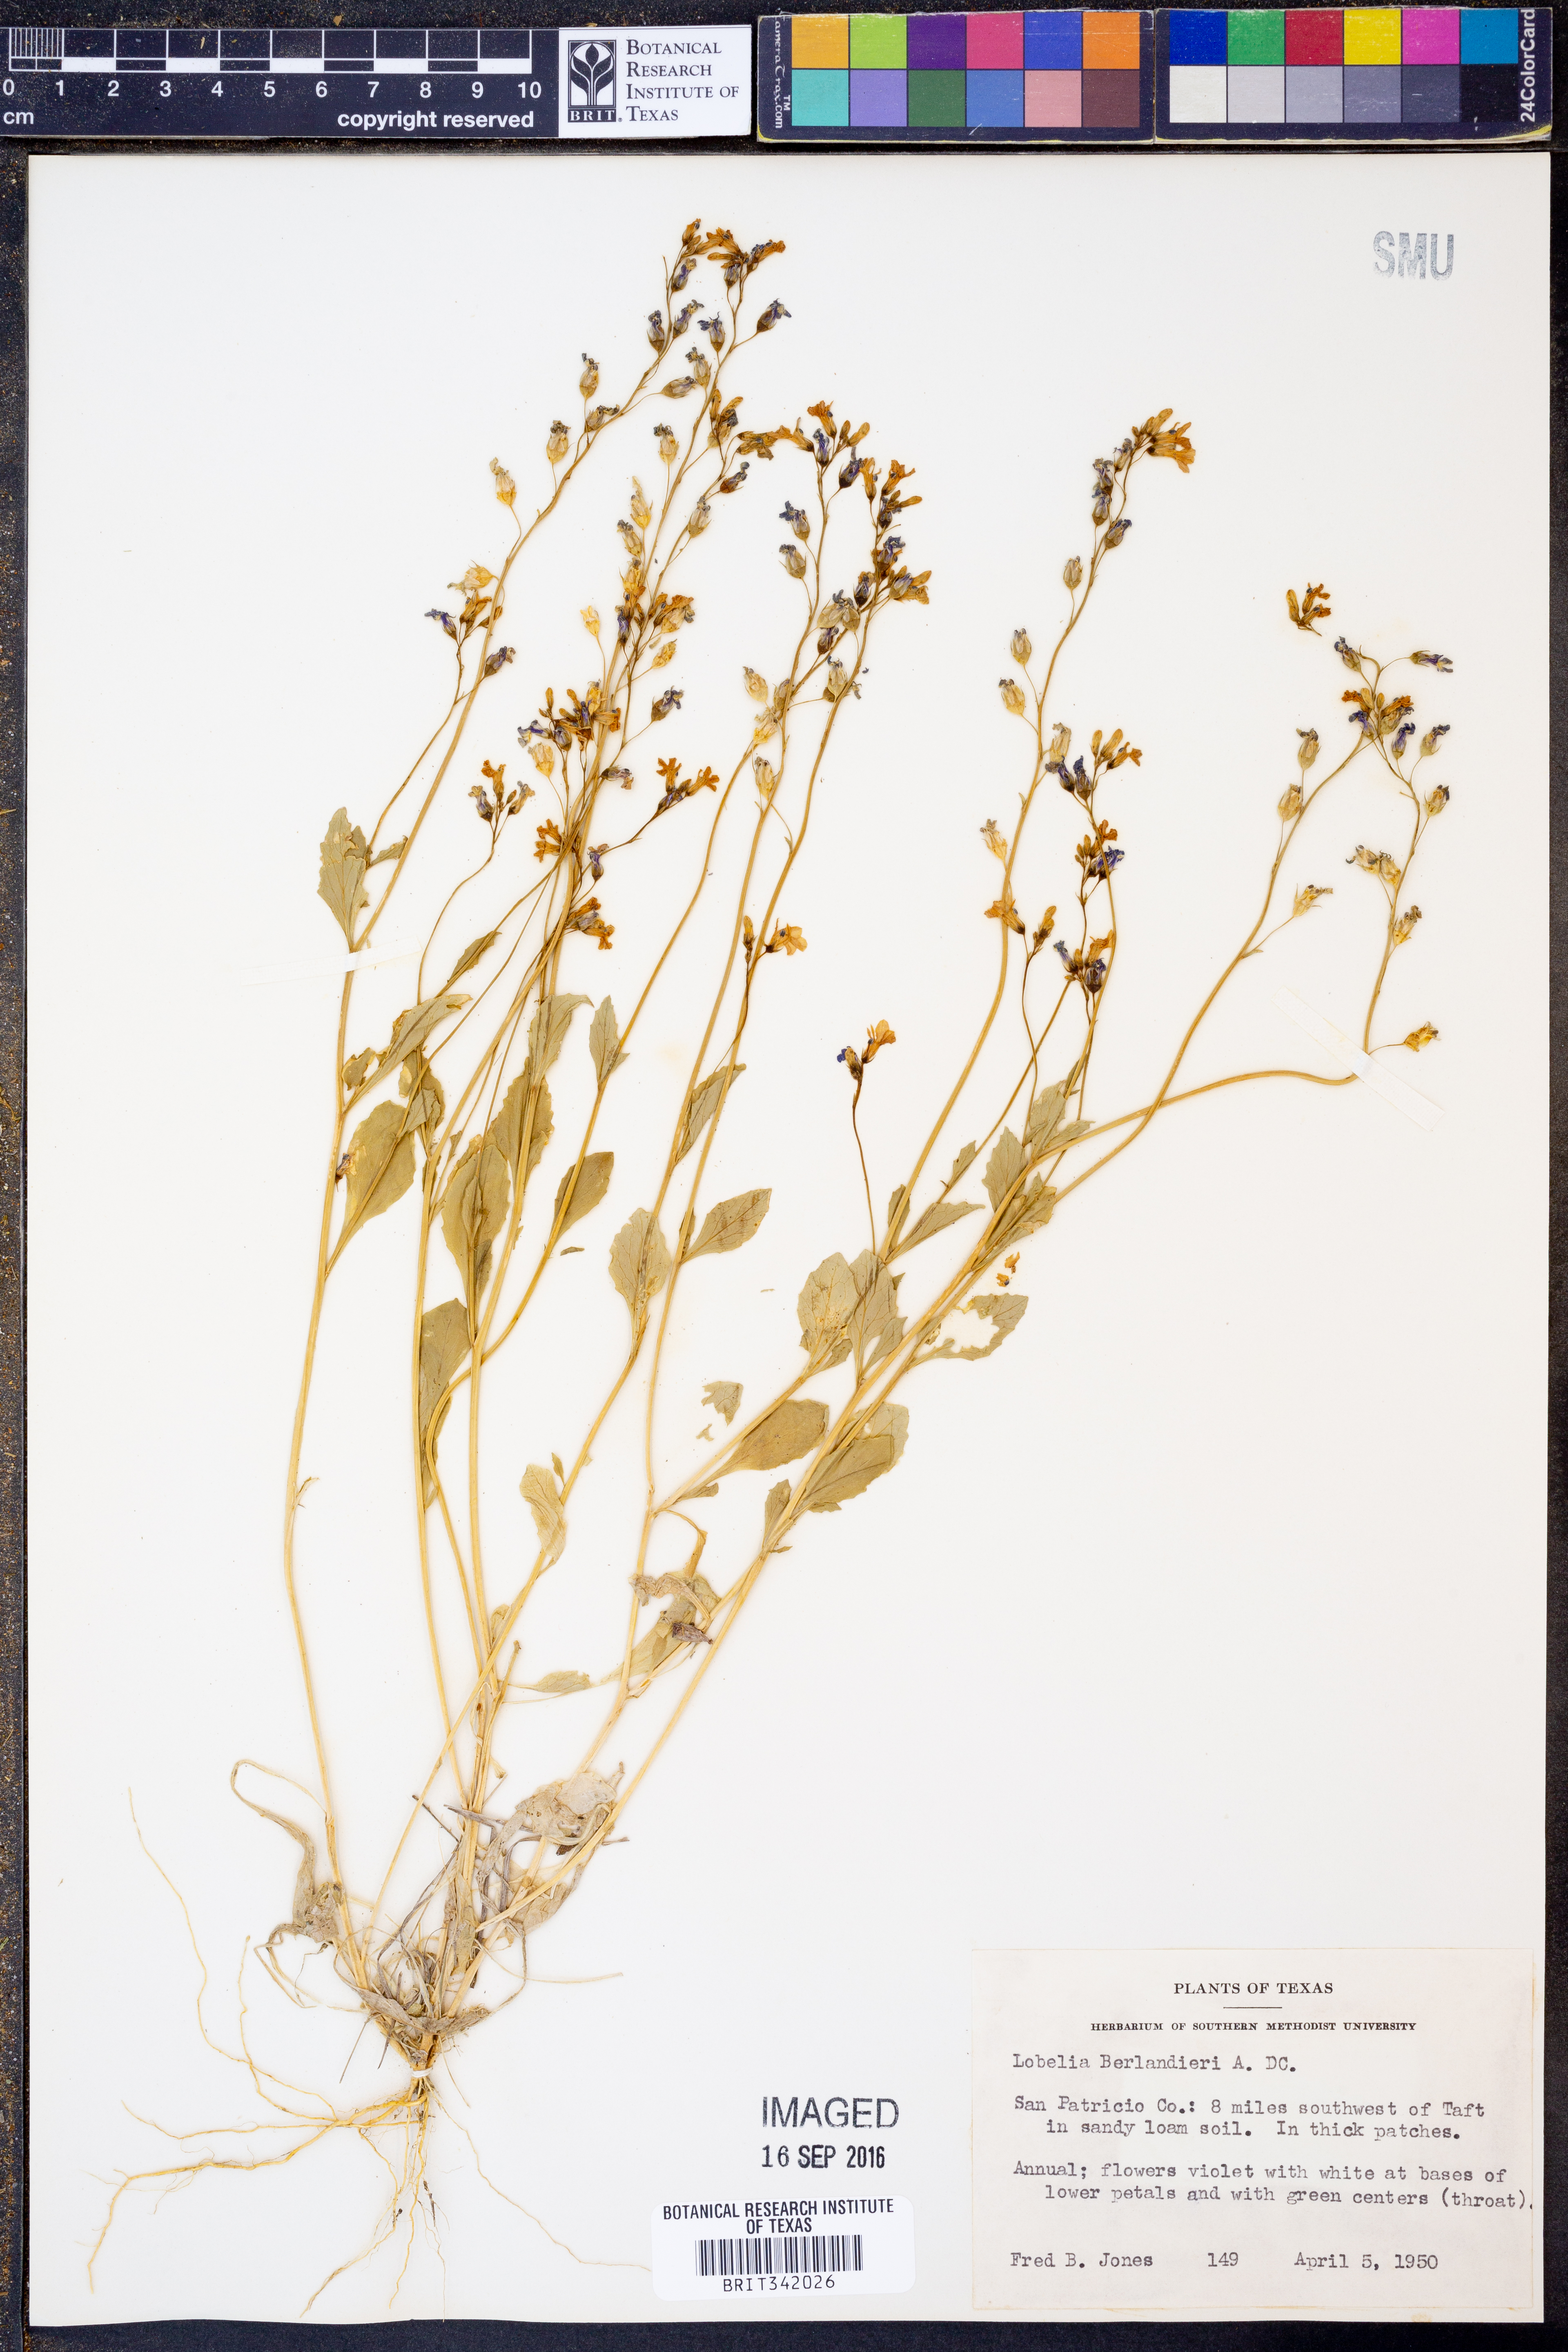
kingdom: Plantae
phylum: Tracheophyta
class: Magnoliopsida
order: Asterales
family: Campanulaceae
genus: Lobelia
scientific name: Lobelia berlandieri
